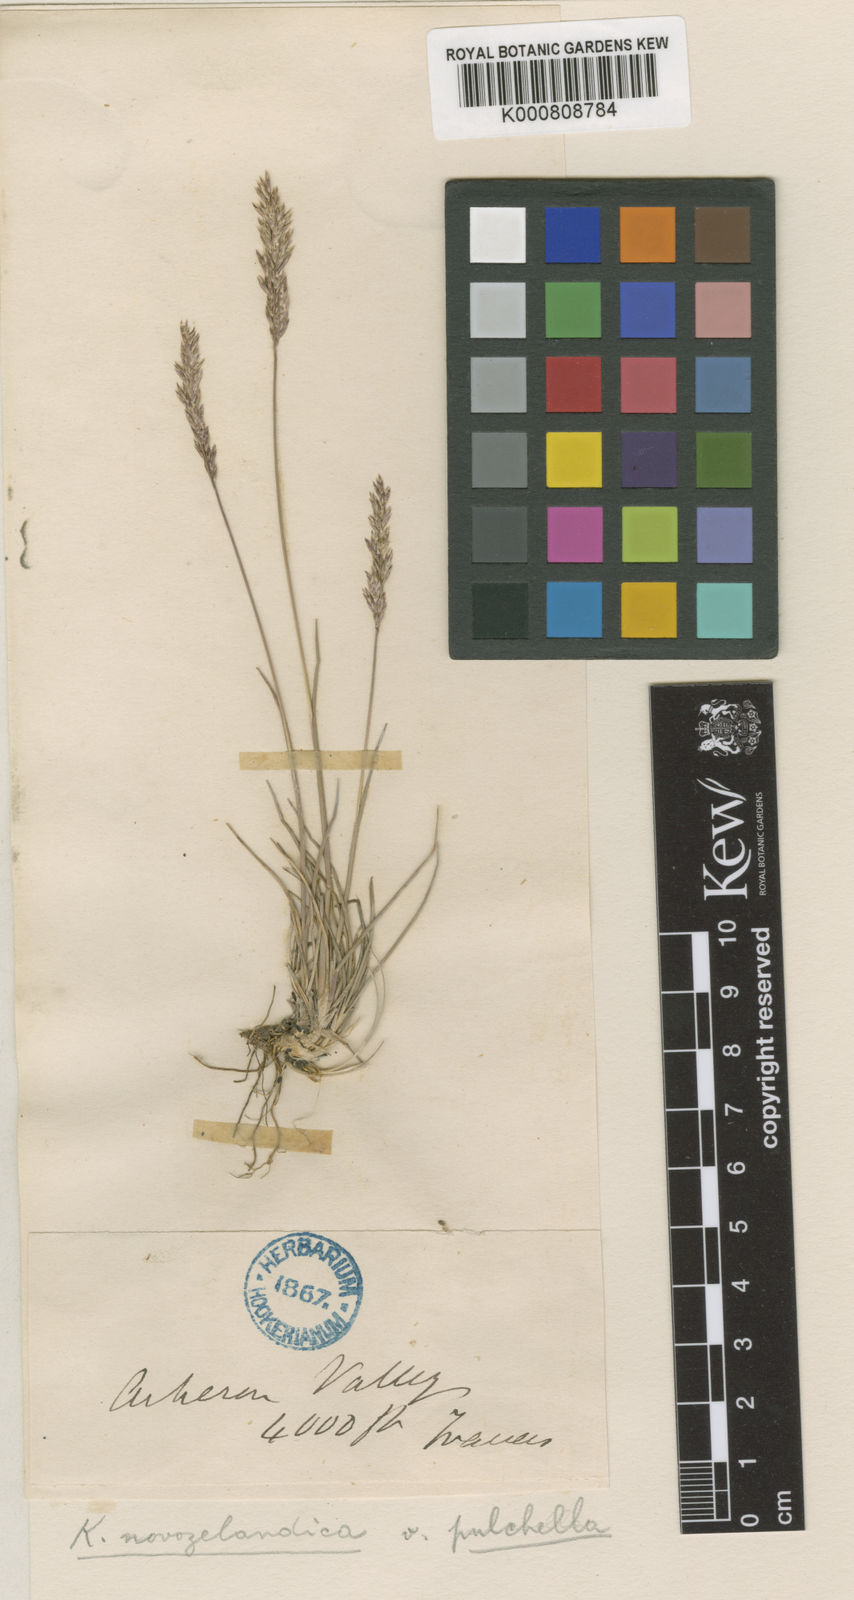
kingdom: Plantae
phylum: Tracheophyta
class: Liliopsida
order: Poales
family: Poaceae
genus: Koeleria
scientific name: Koeleria novozelandica
